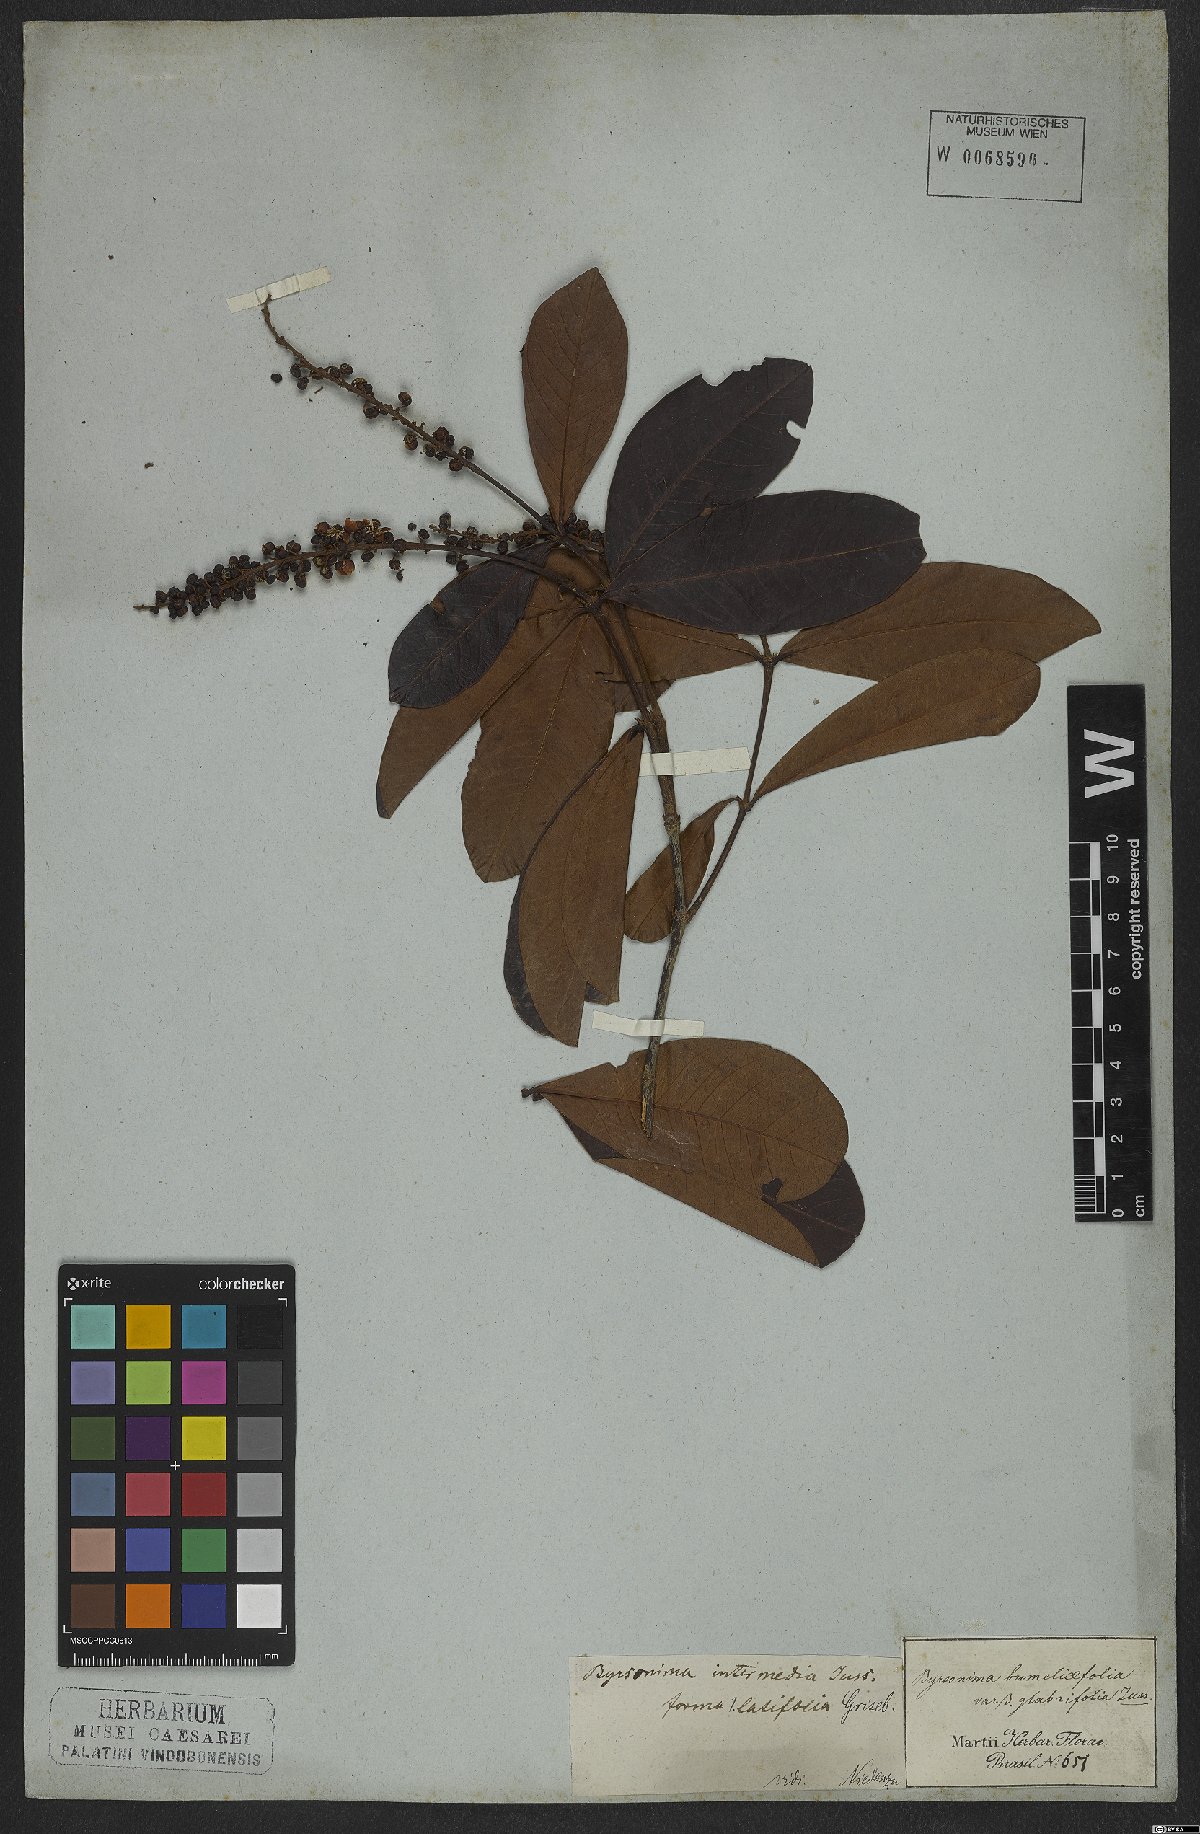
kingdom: Plantae
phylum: Tracheophyta
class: Magnoliopsida
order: Malpighiales
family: Malpighiaceae
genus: Byrsonima
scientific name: Byrsonima intermedia
